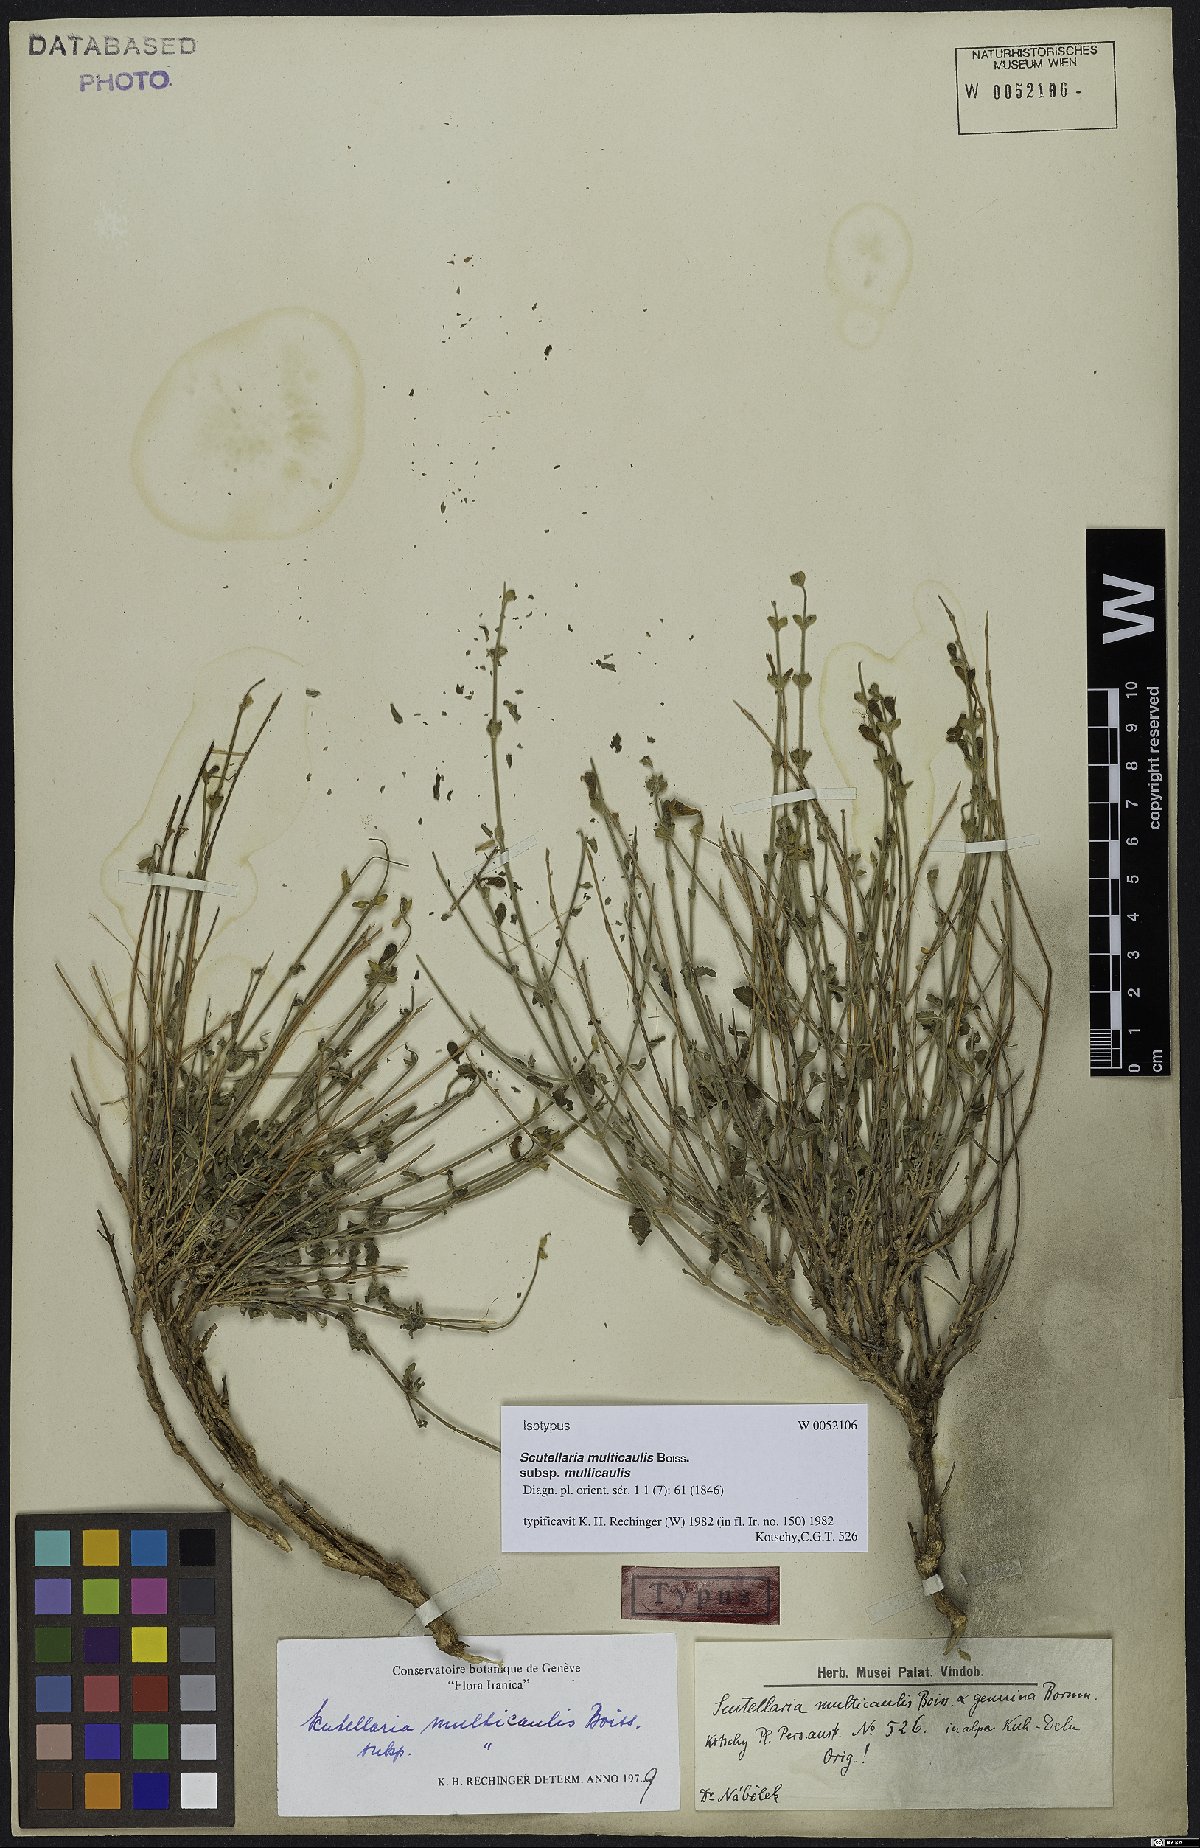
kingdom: Plantae
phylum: Tracheophyta
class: Magnoliopsida
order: Lamiales
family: Lamiaceae
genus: Scutellaria
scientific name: Scutellaria multicaulis
